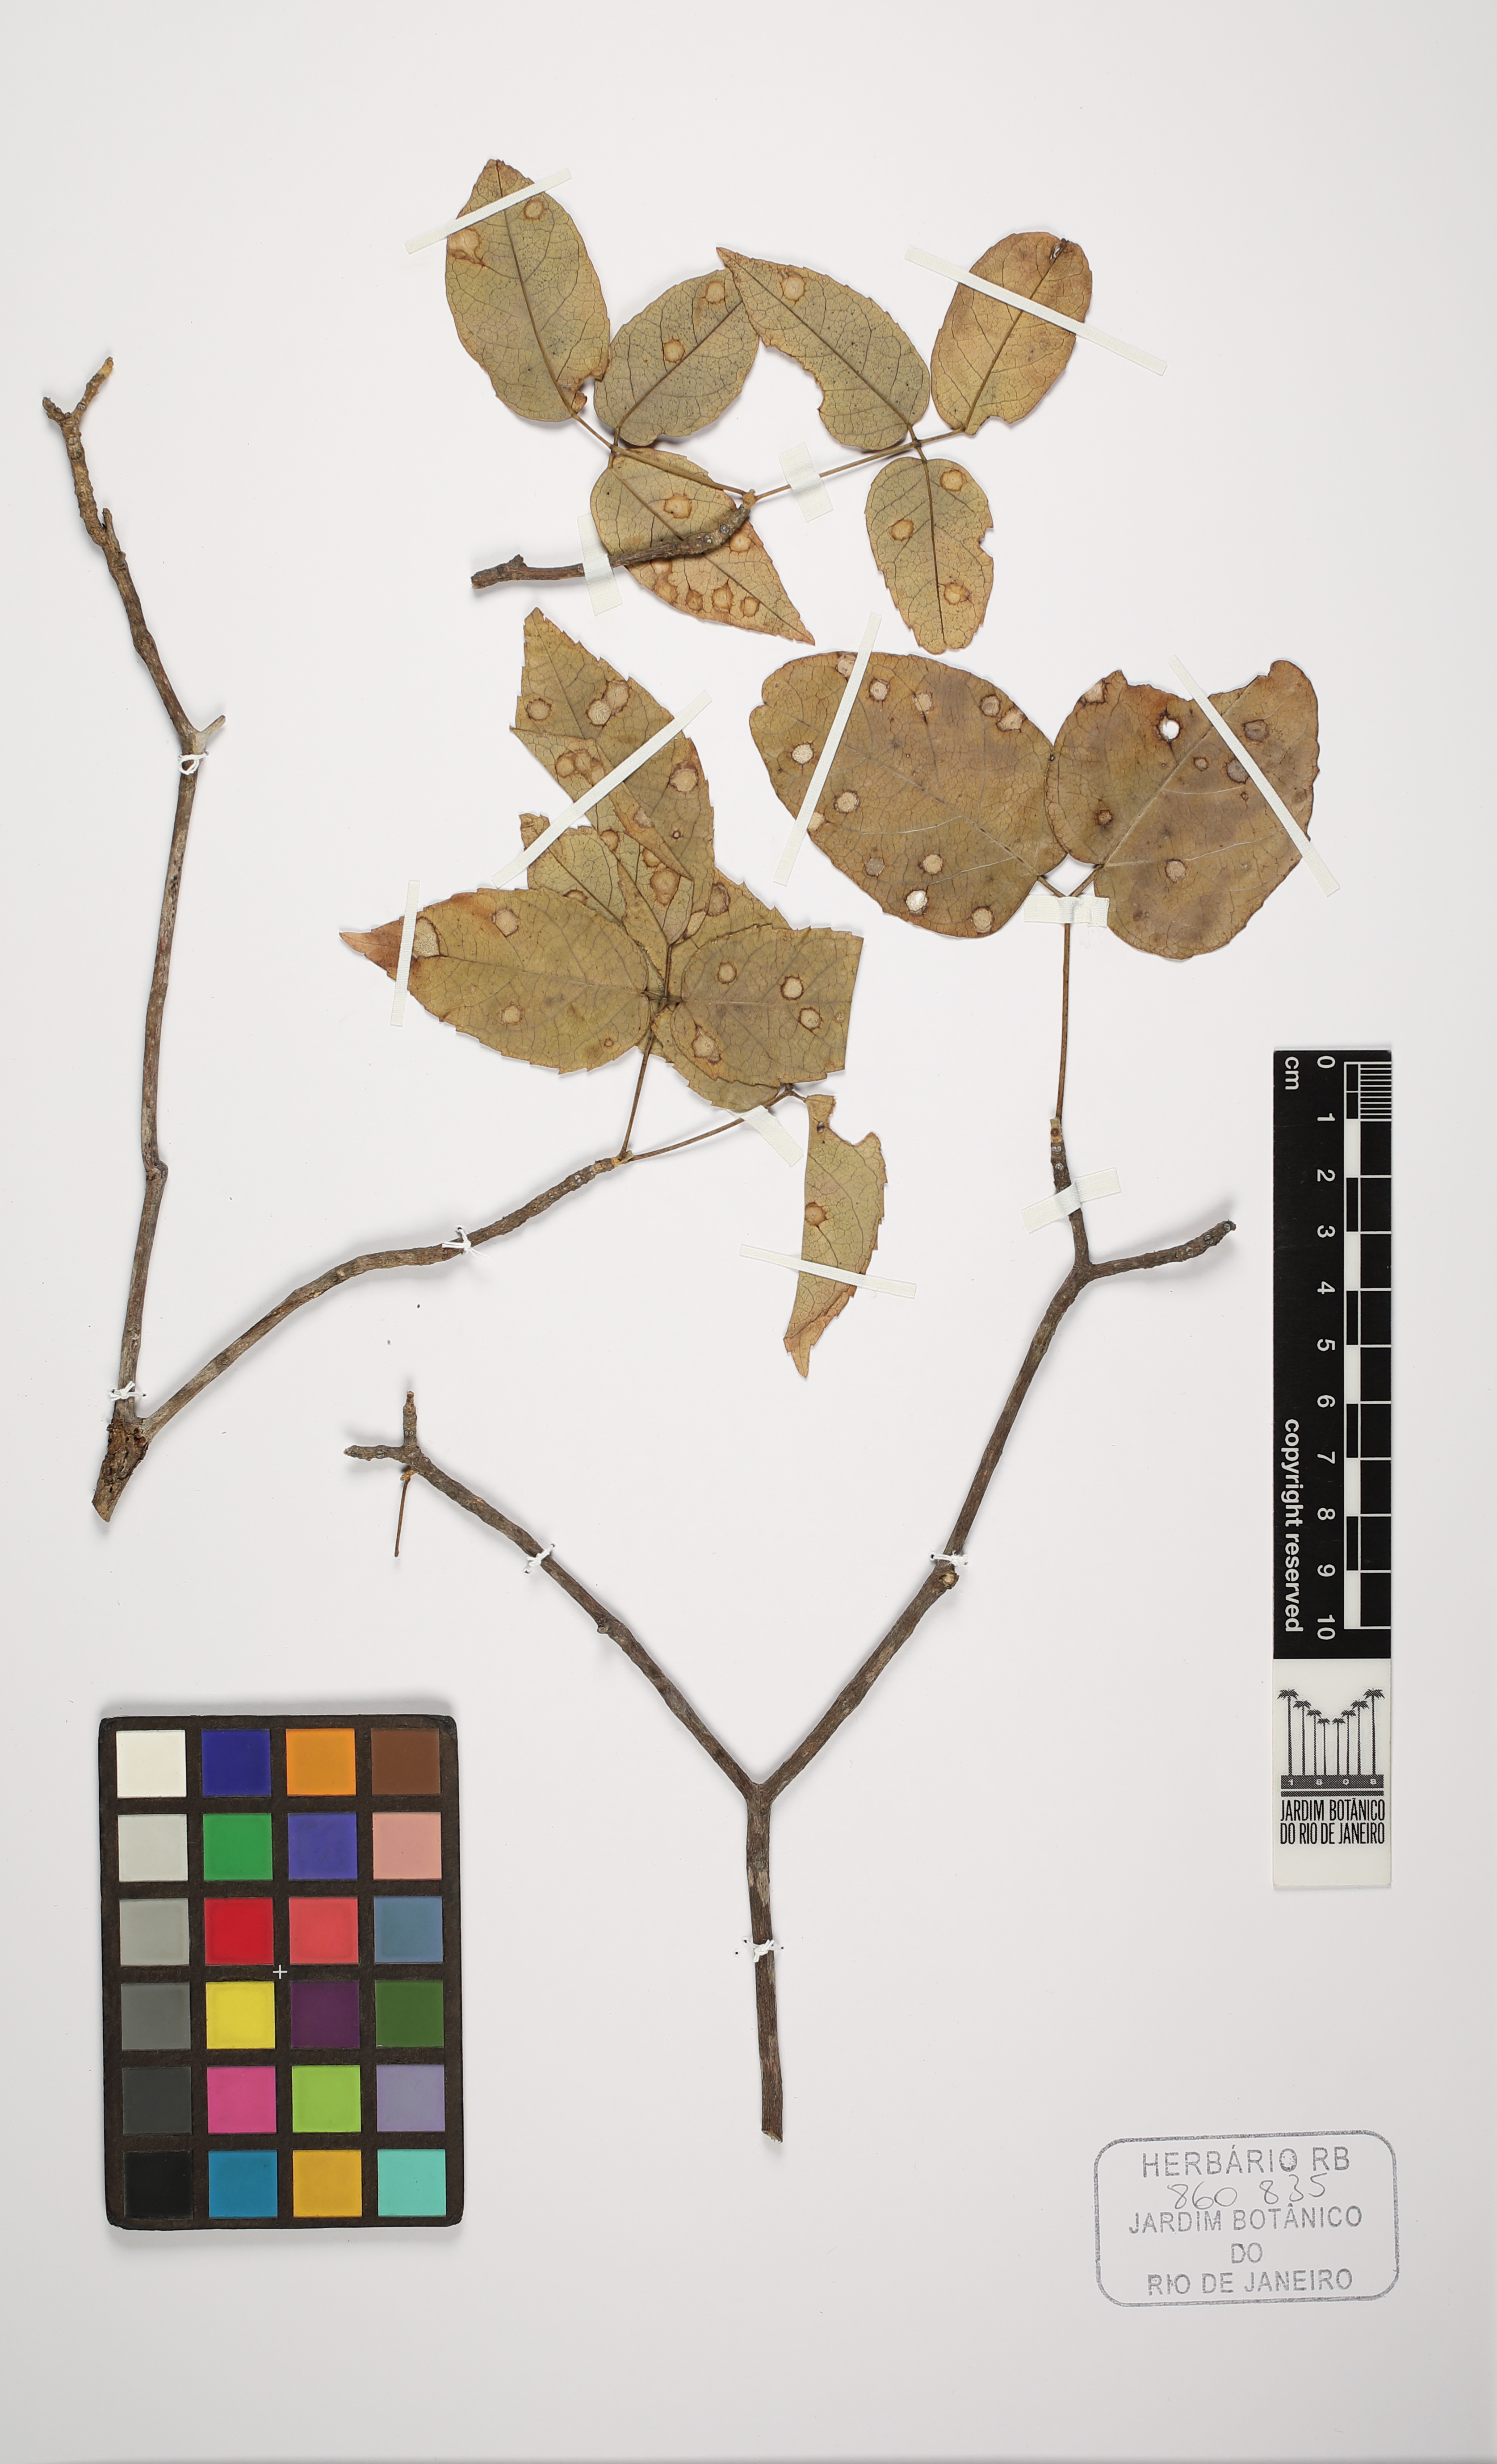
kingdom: Plantae
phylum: Tracheophyta
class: Magnoliopsida
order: Lamiales
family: Bignoniaceae
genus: Handroanthus
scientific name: Handroanthus selachidentatus
